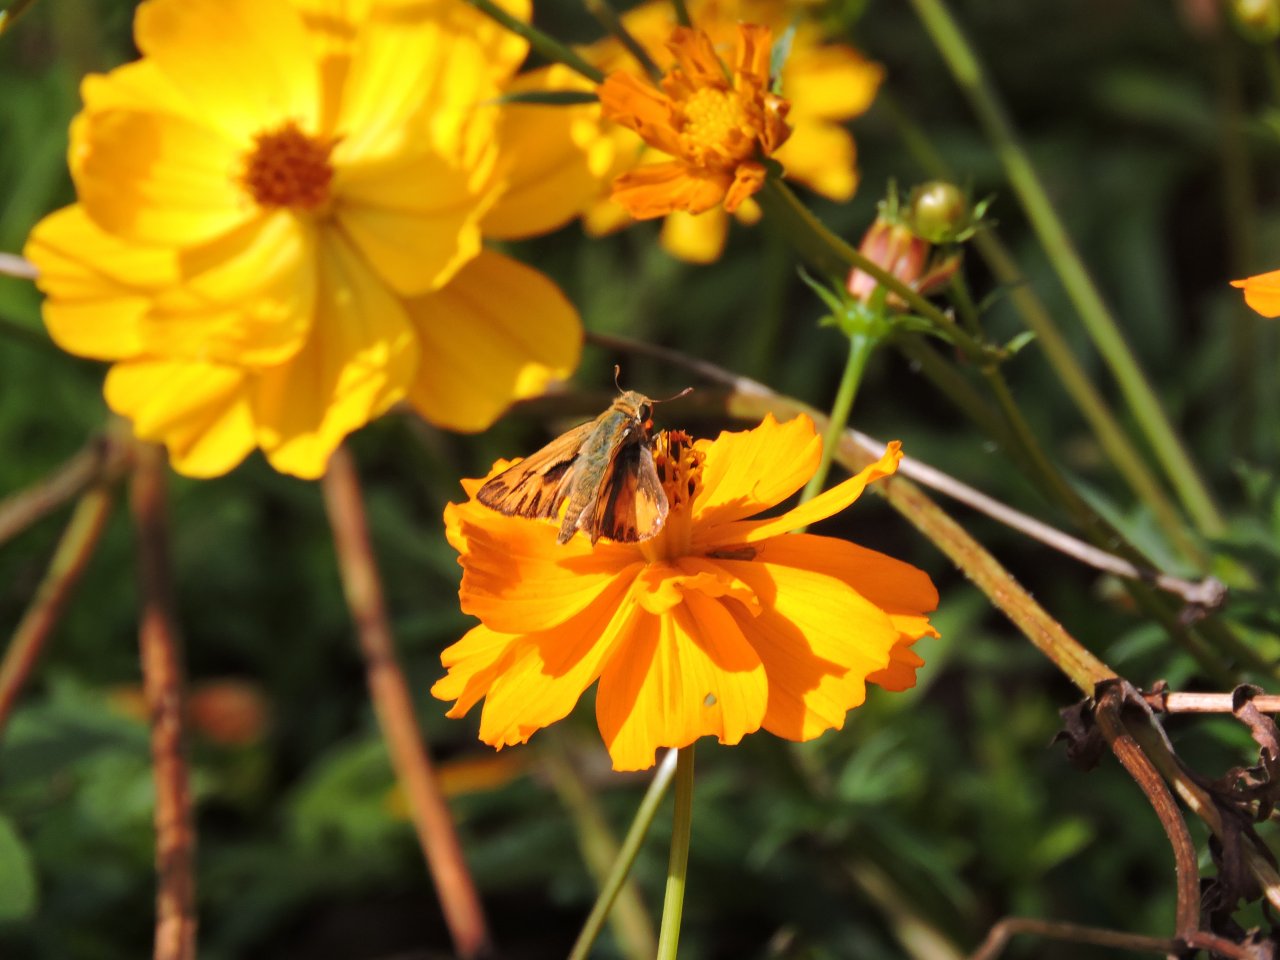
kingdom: Animalia
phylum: Arthropoda
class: Insecta
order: Lepidoptera
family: Hesperiidae
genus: Hylephila
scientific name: Hylephila phyleus
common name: Fiery Skipper
